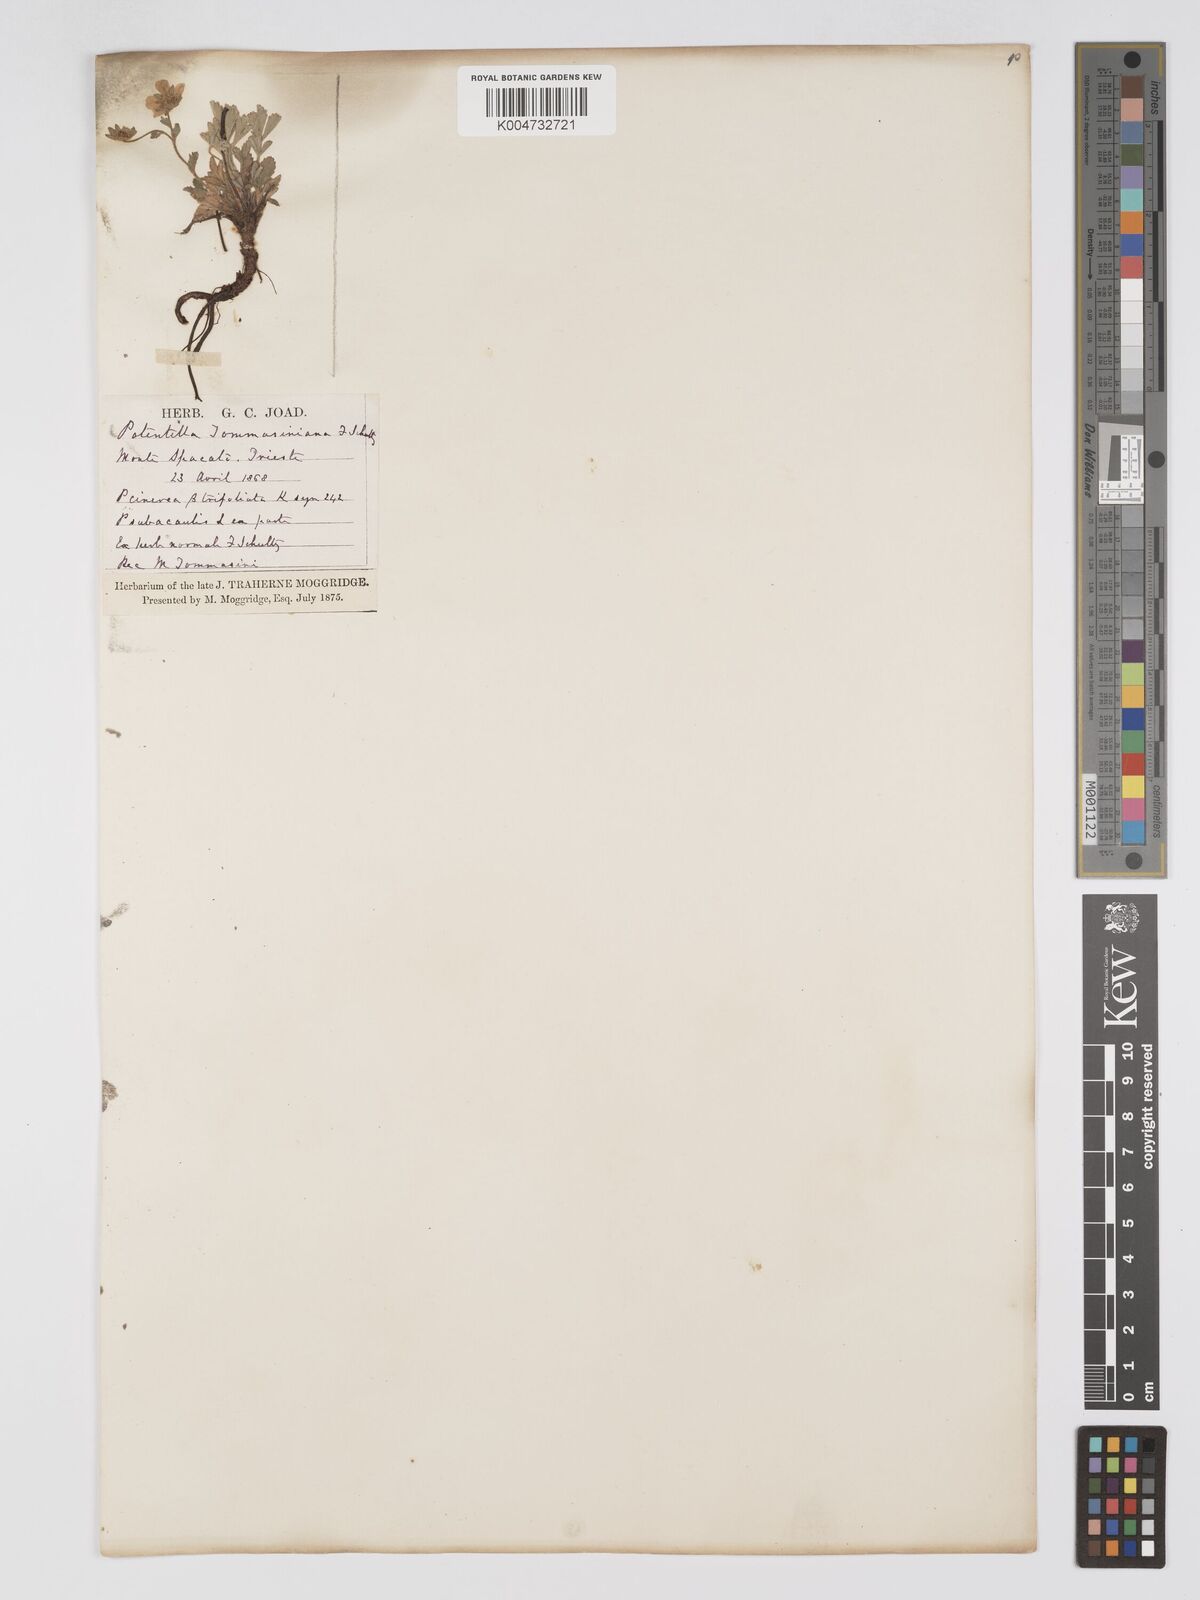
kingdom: Plantae
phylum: Tracheophyta
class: Magnoliopsida
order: Rosales
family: Rosaceae
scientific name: Rosaceae
